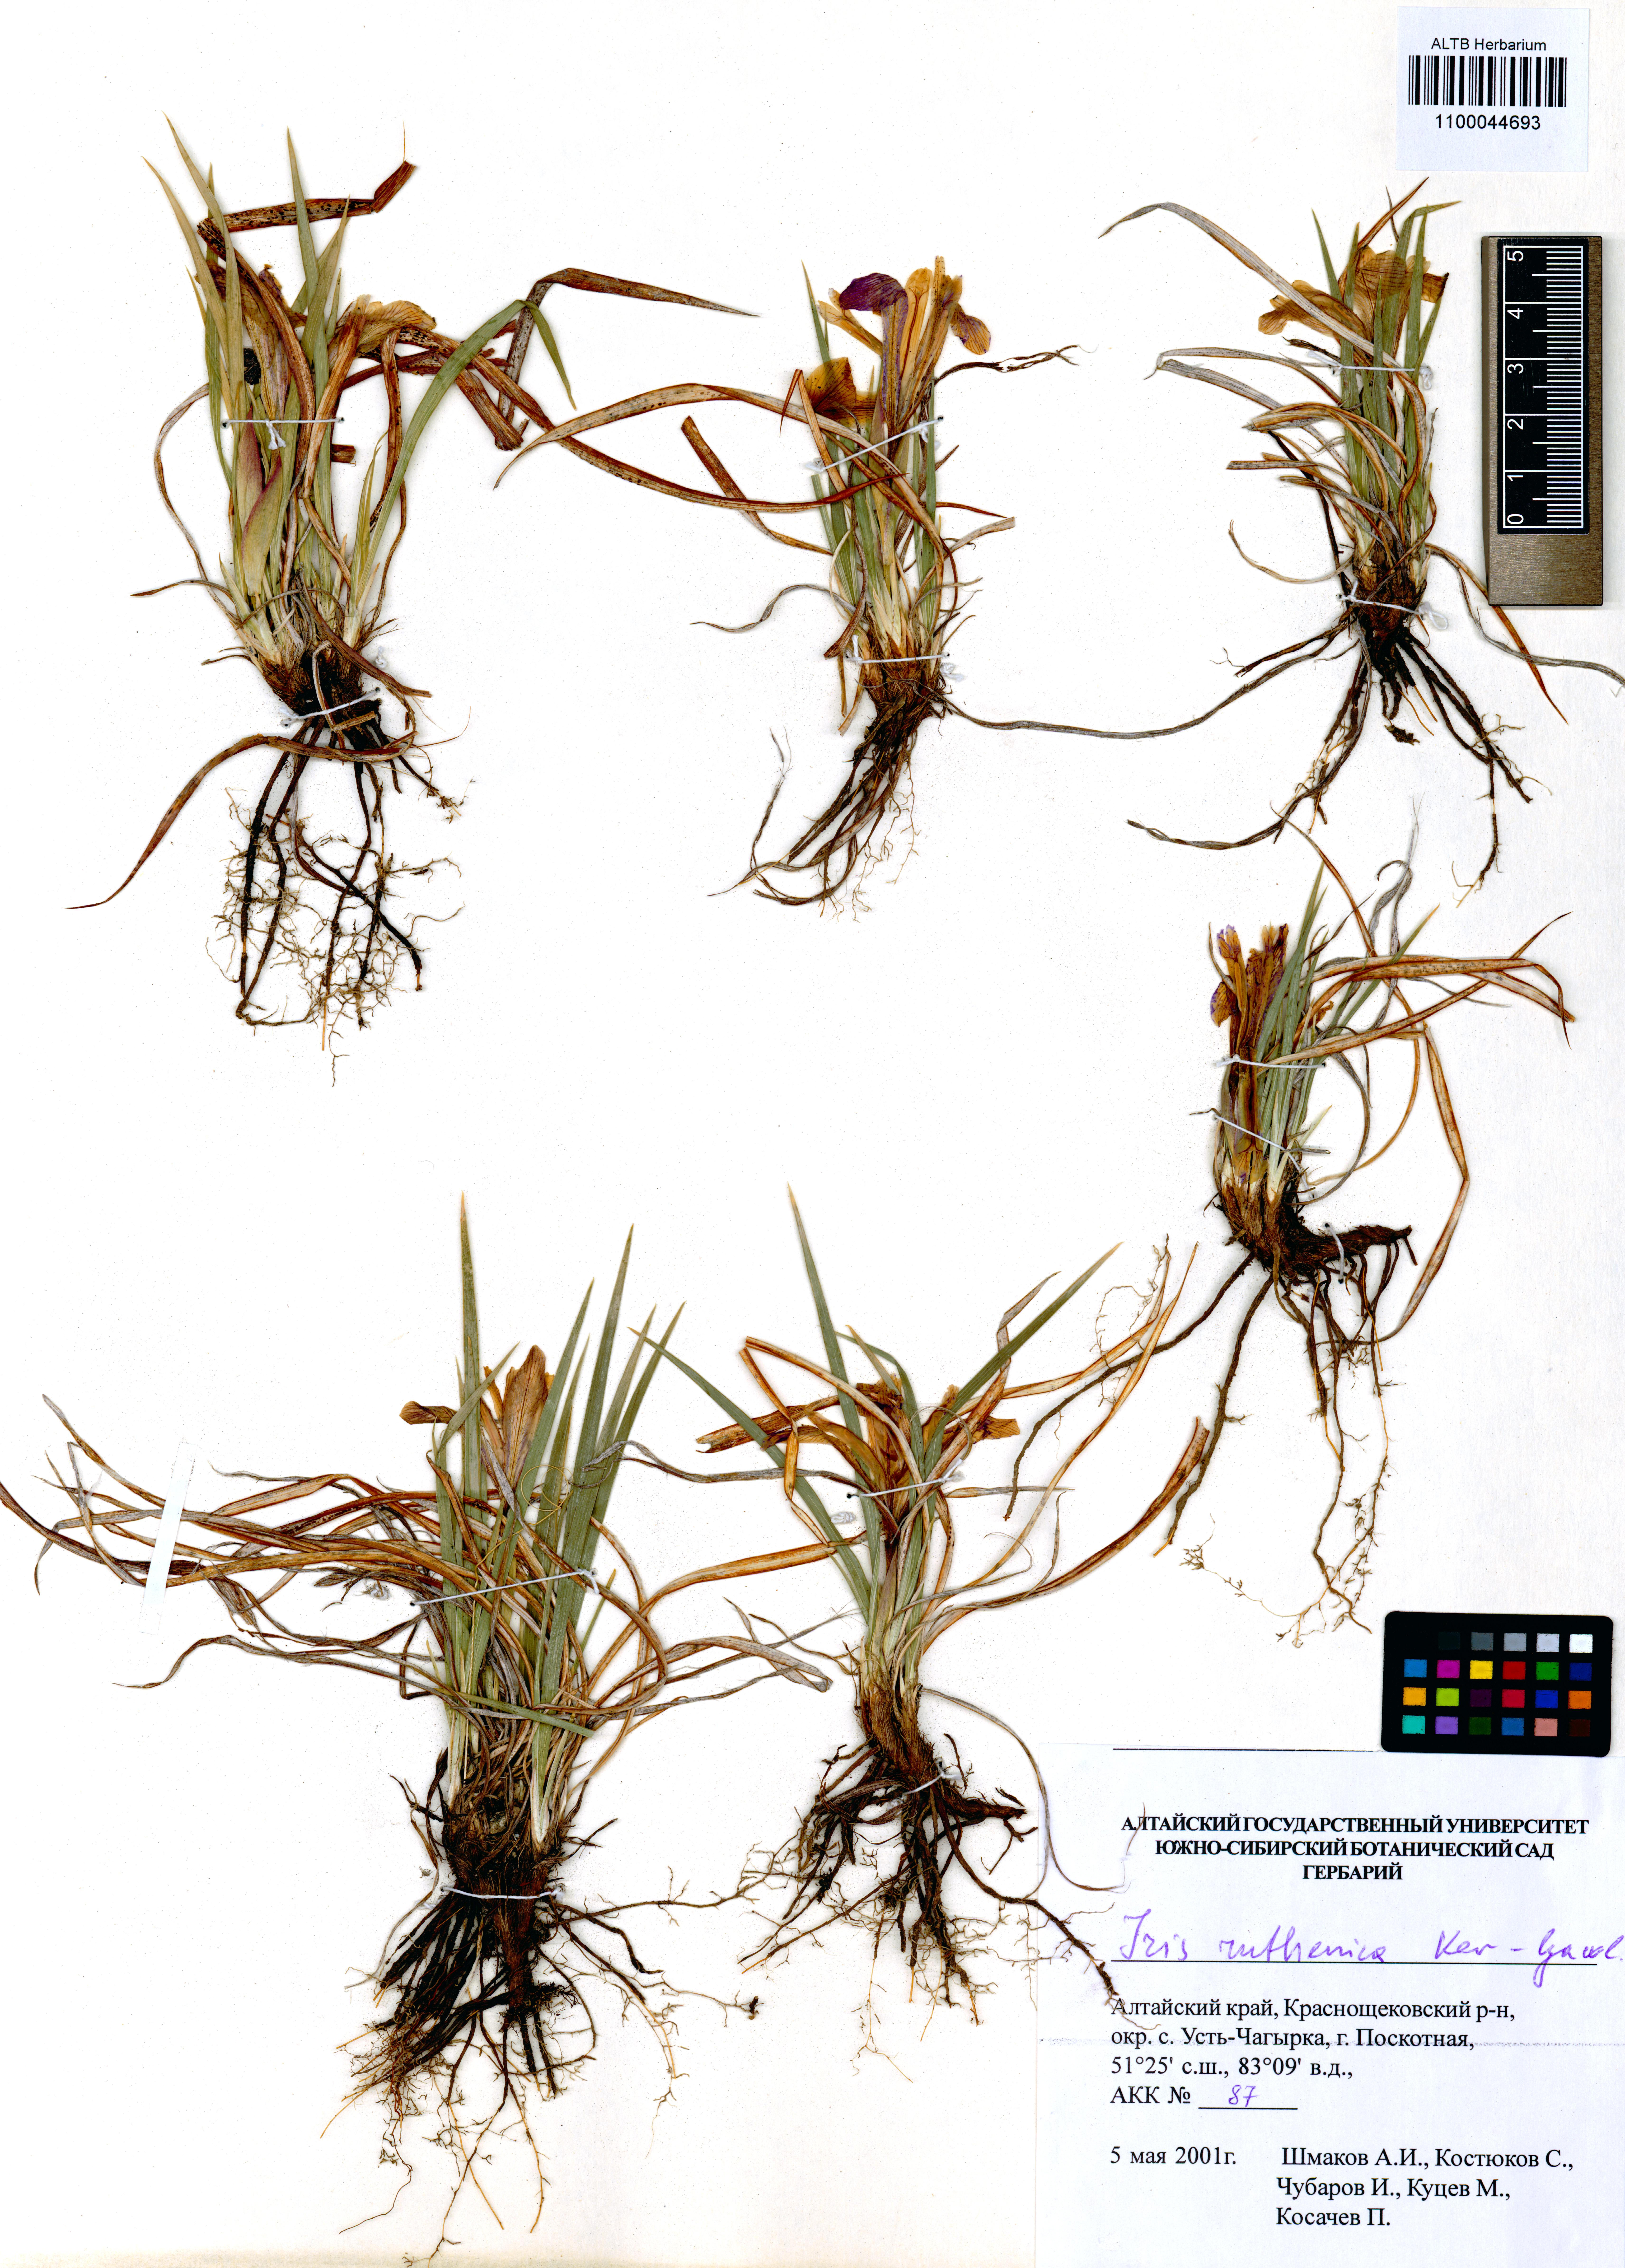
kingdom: Plantae
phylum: Tracheophyta
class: Liliopsida
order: Asparagales
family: Iridaceae
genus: Iris
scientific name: Iris ruthenica
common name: Purple-bract iris
